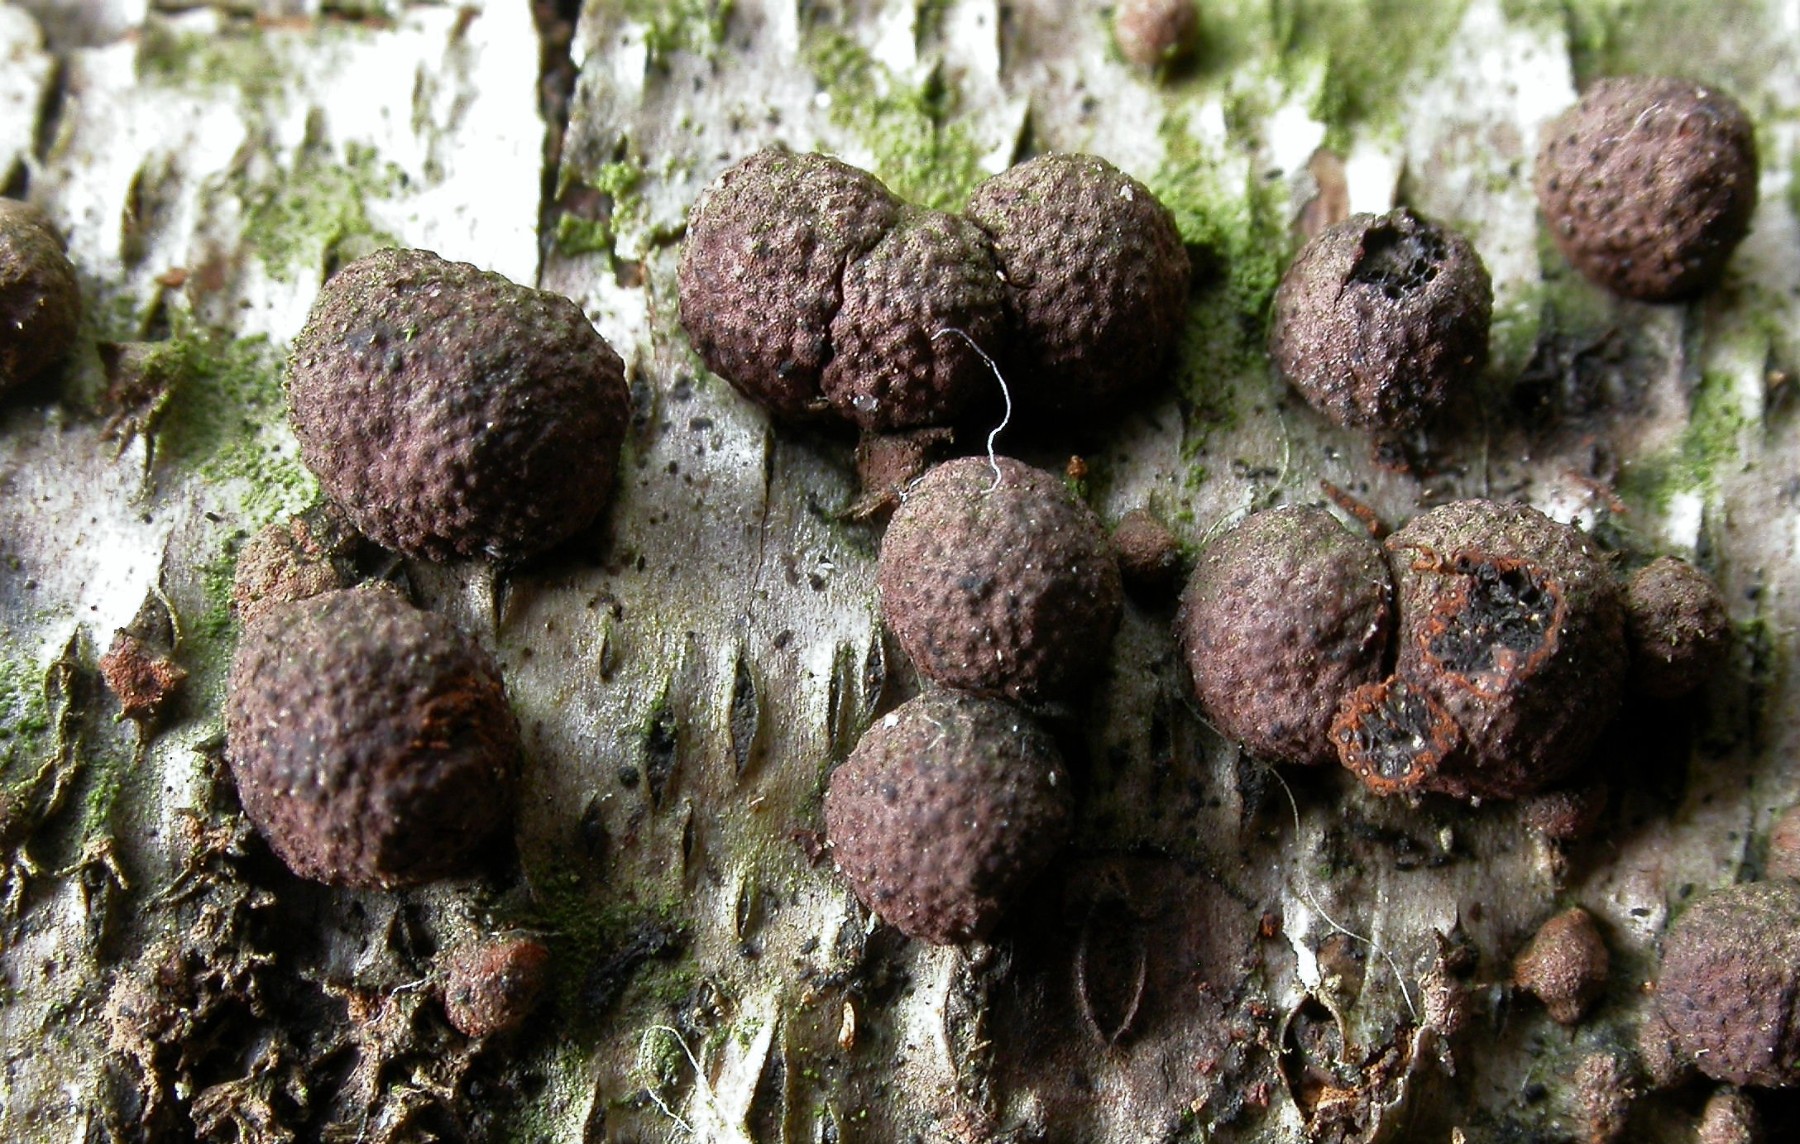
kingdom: Fungi
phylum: Ascomycota
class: Sordariomycetes
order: Xylariales
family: Hypoxylaceae
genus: Hypoxylon
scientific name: Hypoxylon howeanum
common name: halvkugleformet kulbær
